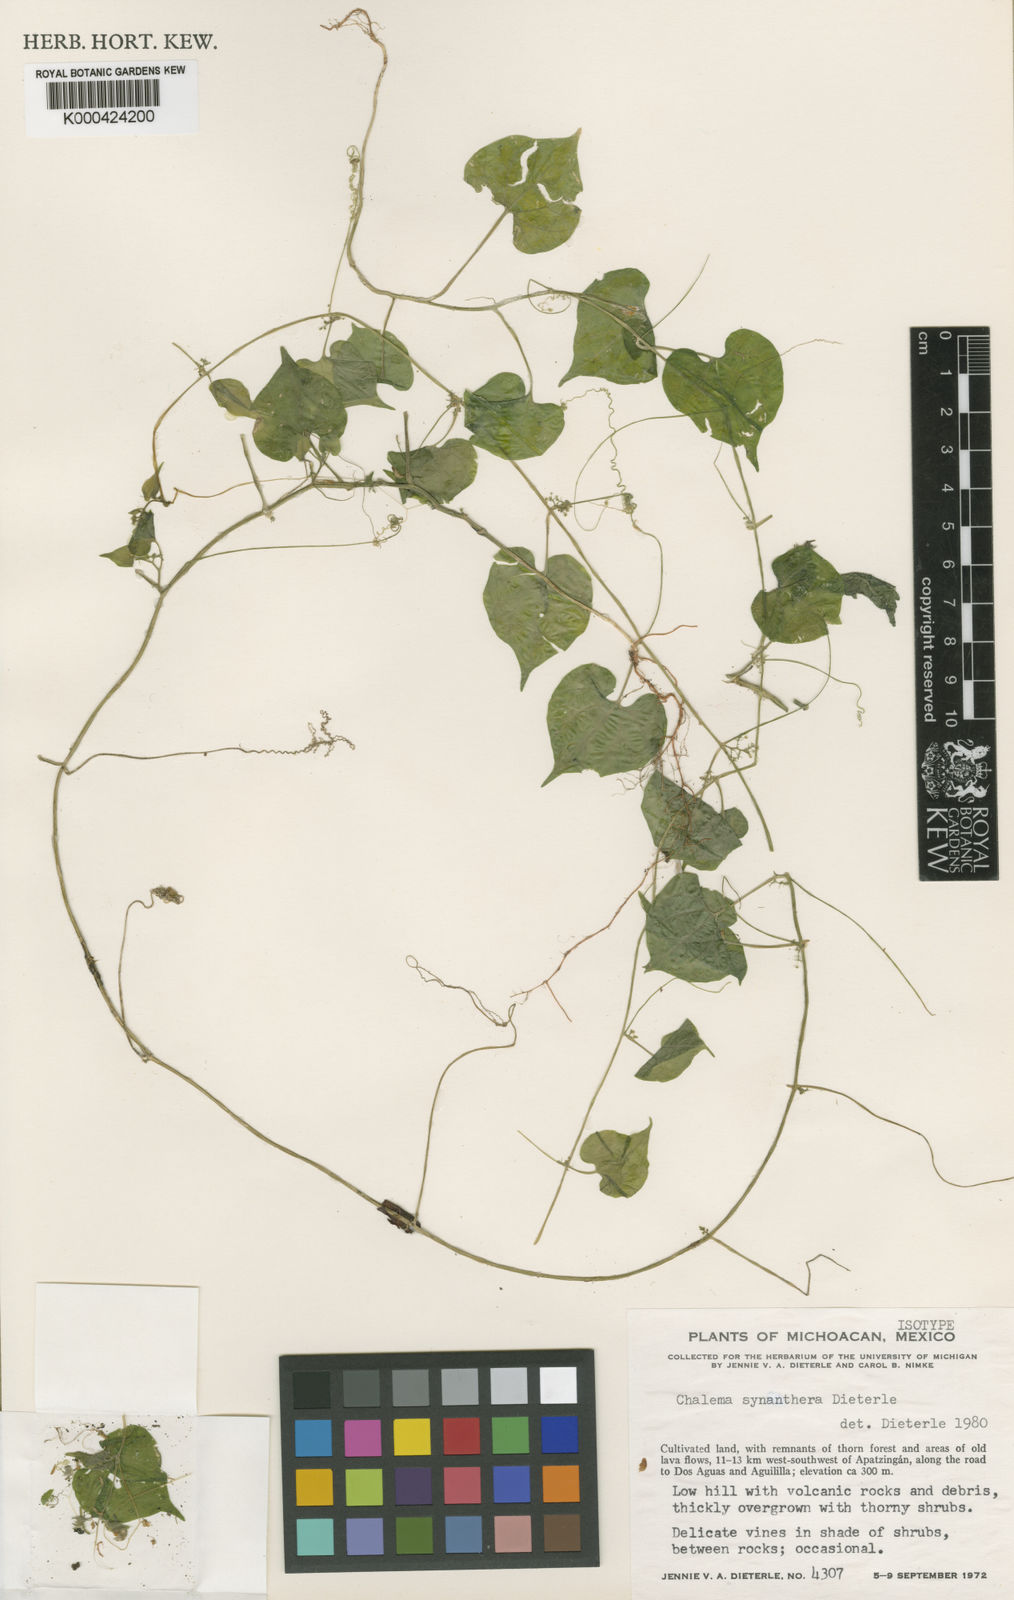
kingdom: Plantae
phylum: Tracheophyta
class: Magnoliopsida
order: Cucurbitales
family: Cucurbitaceae
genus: Sicydium
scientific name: Sicydium synantherum
